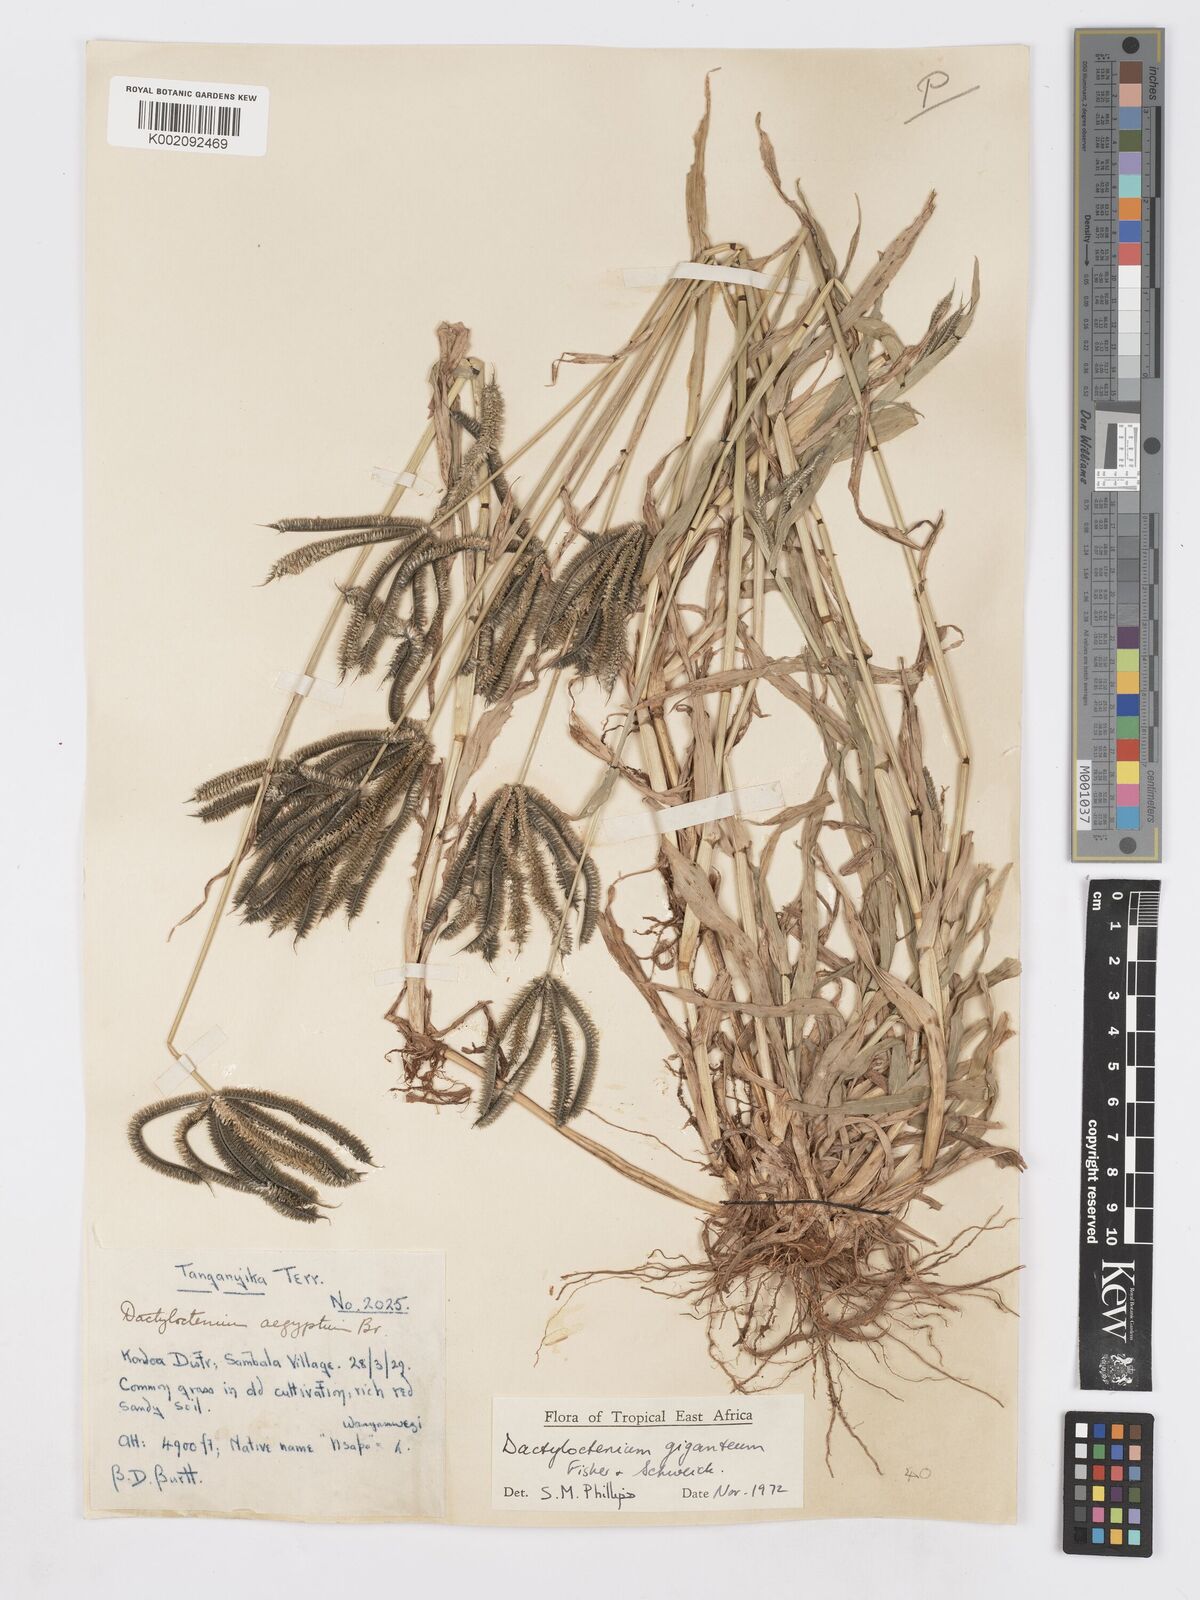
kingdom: Plantae
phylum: Tracheophyta
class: Liliopsida
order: Poales
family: Poaceae
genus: Dactyloctenium
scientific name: Dactyloctenium giganteum
